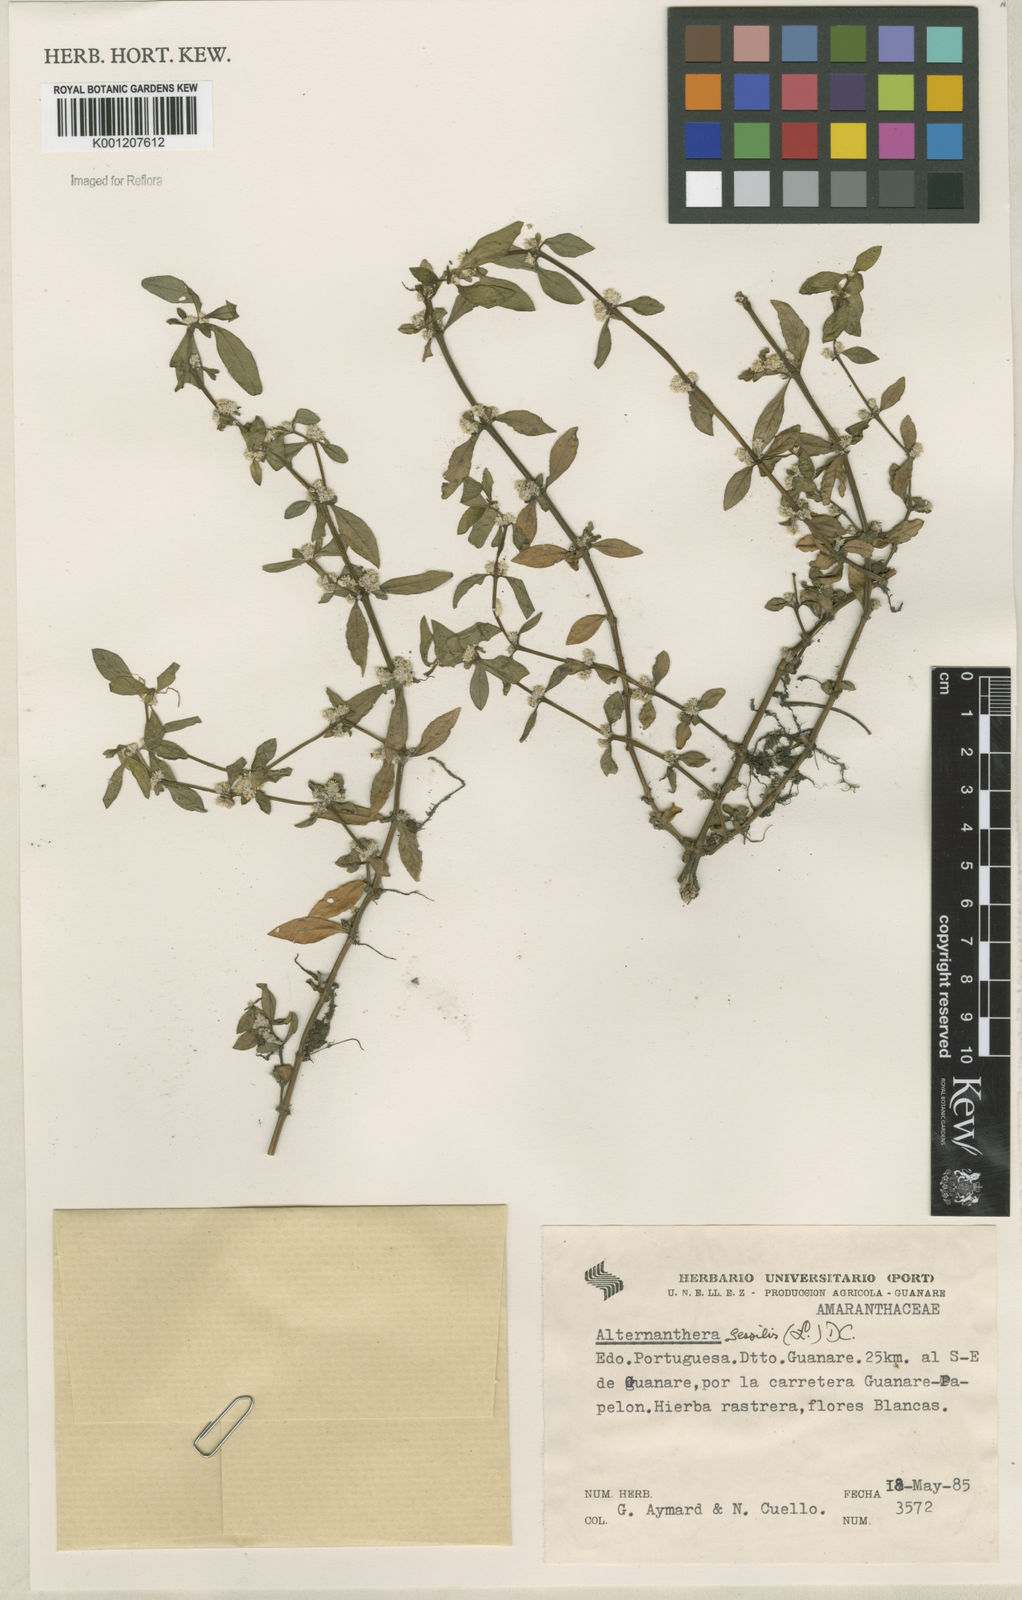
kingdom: Plantae
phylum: Tracheophyta
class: Magnoliopsida
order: Caryophyllales
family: Amaranthaceae
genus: Alternanthera
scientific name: Alternanthera
